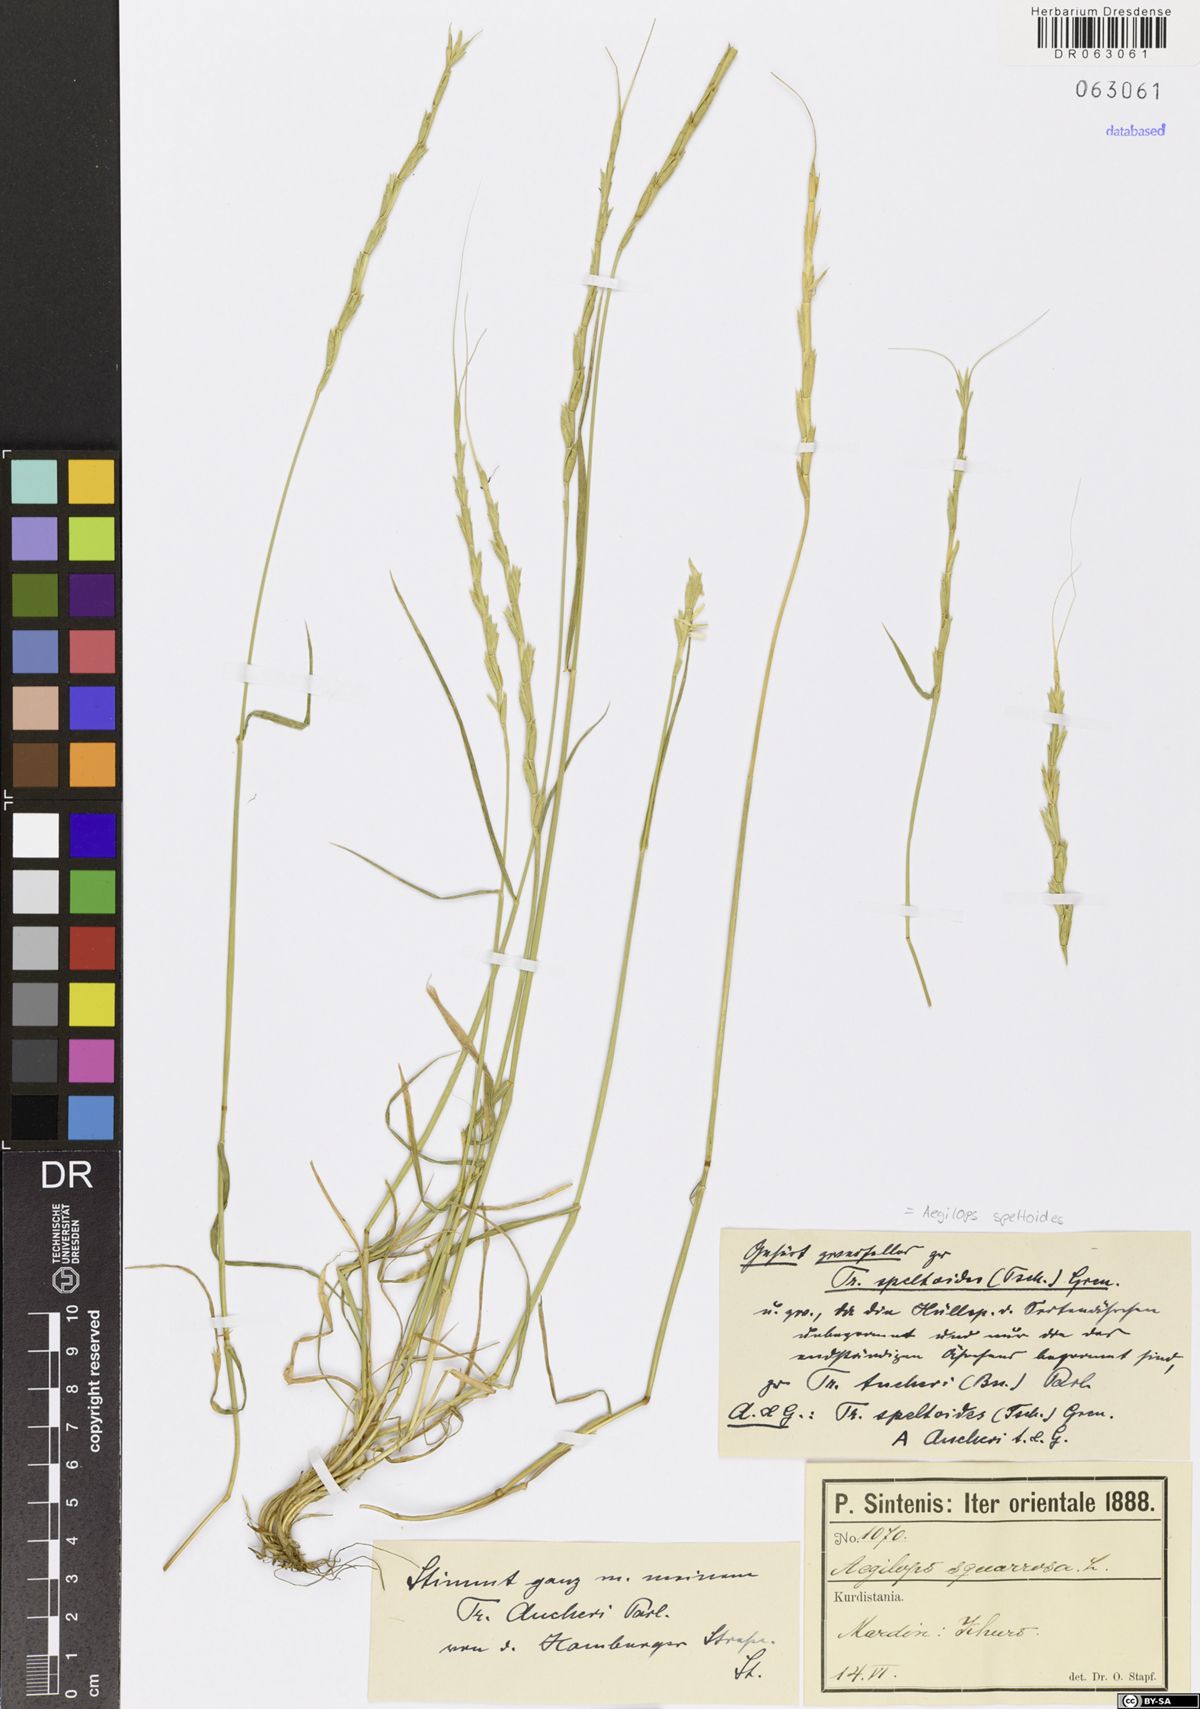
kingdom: Plantae
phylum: Tracheophyta
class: Liliopsida
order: Poales
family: Poaceae
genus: Aegilops
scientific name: Aegilops speltoides
